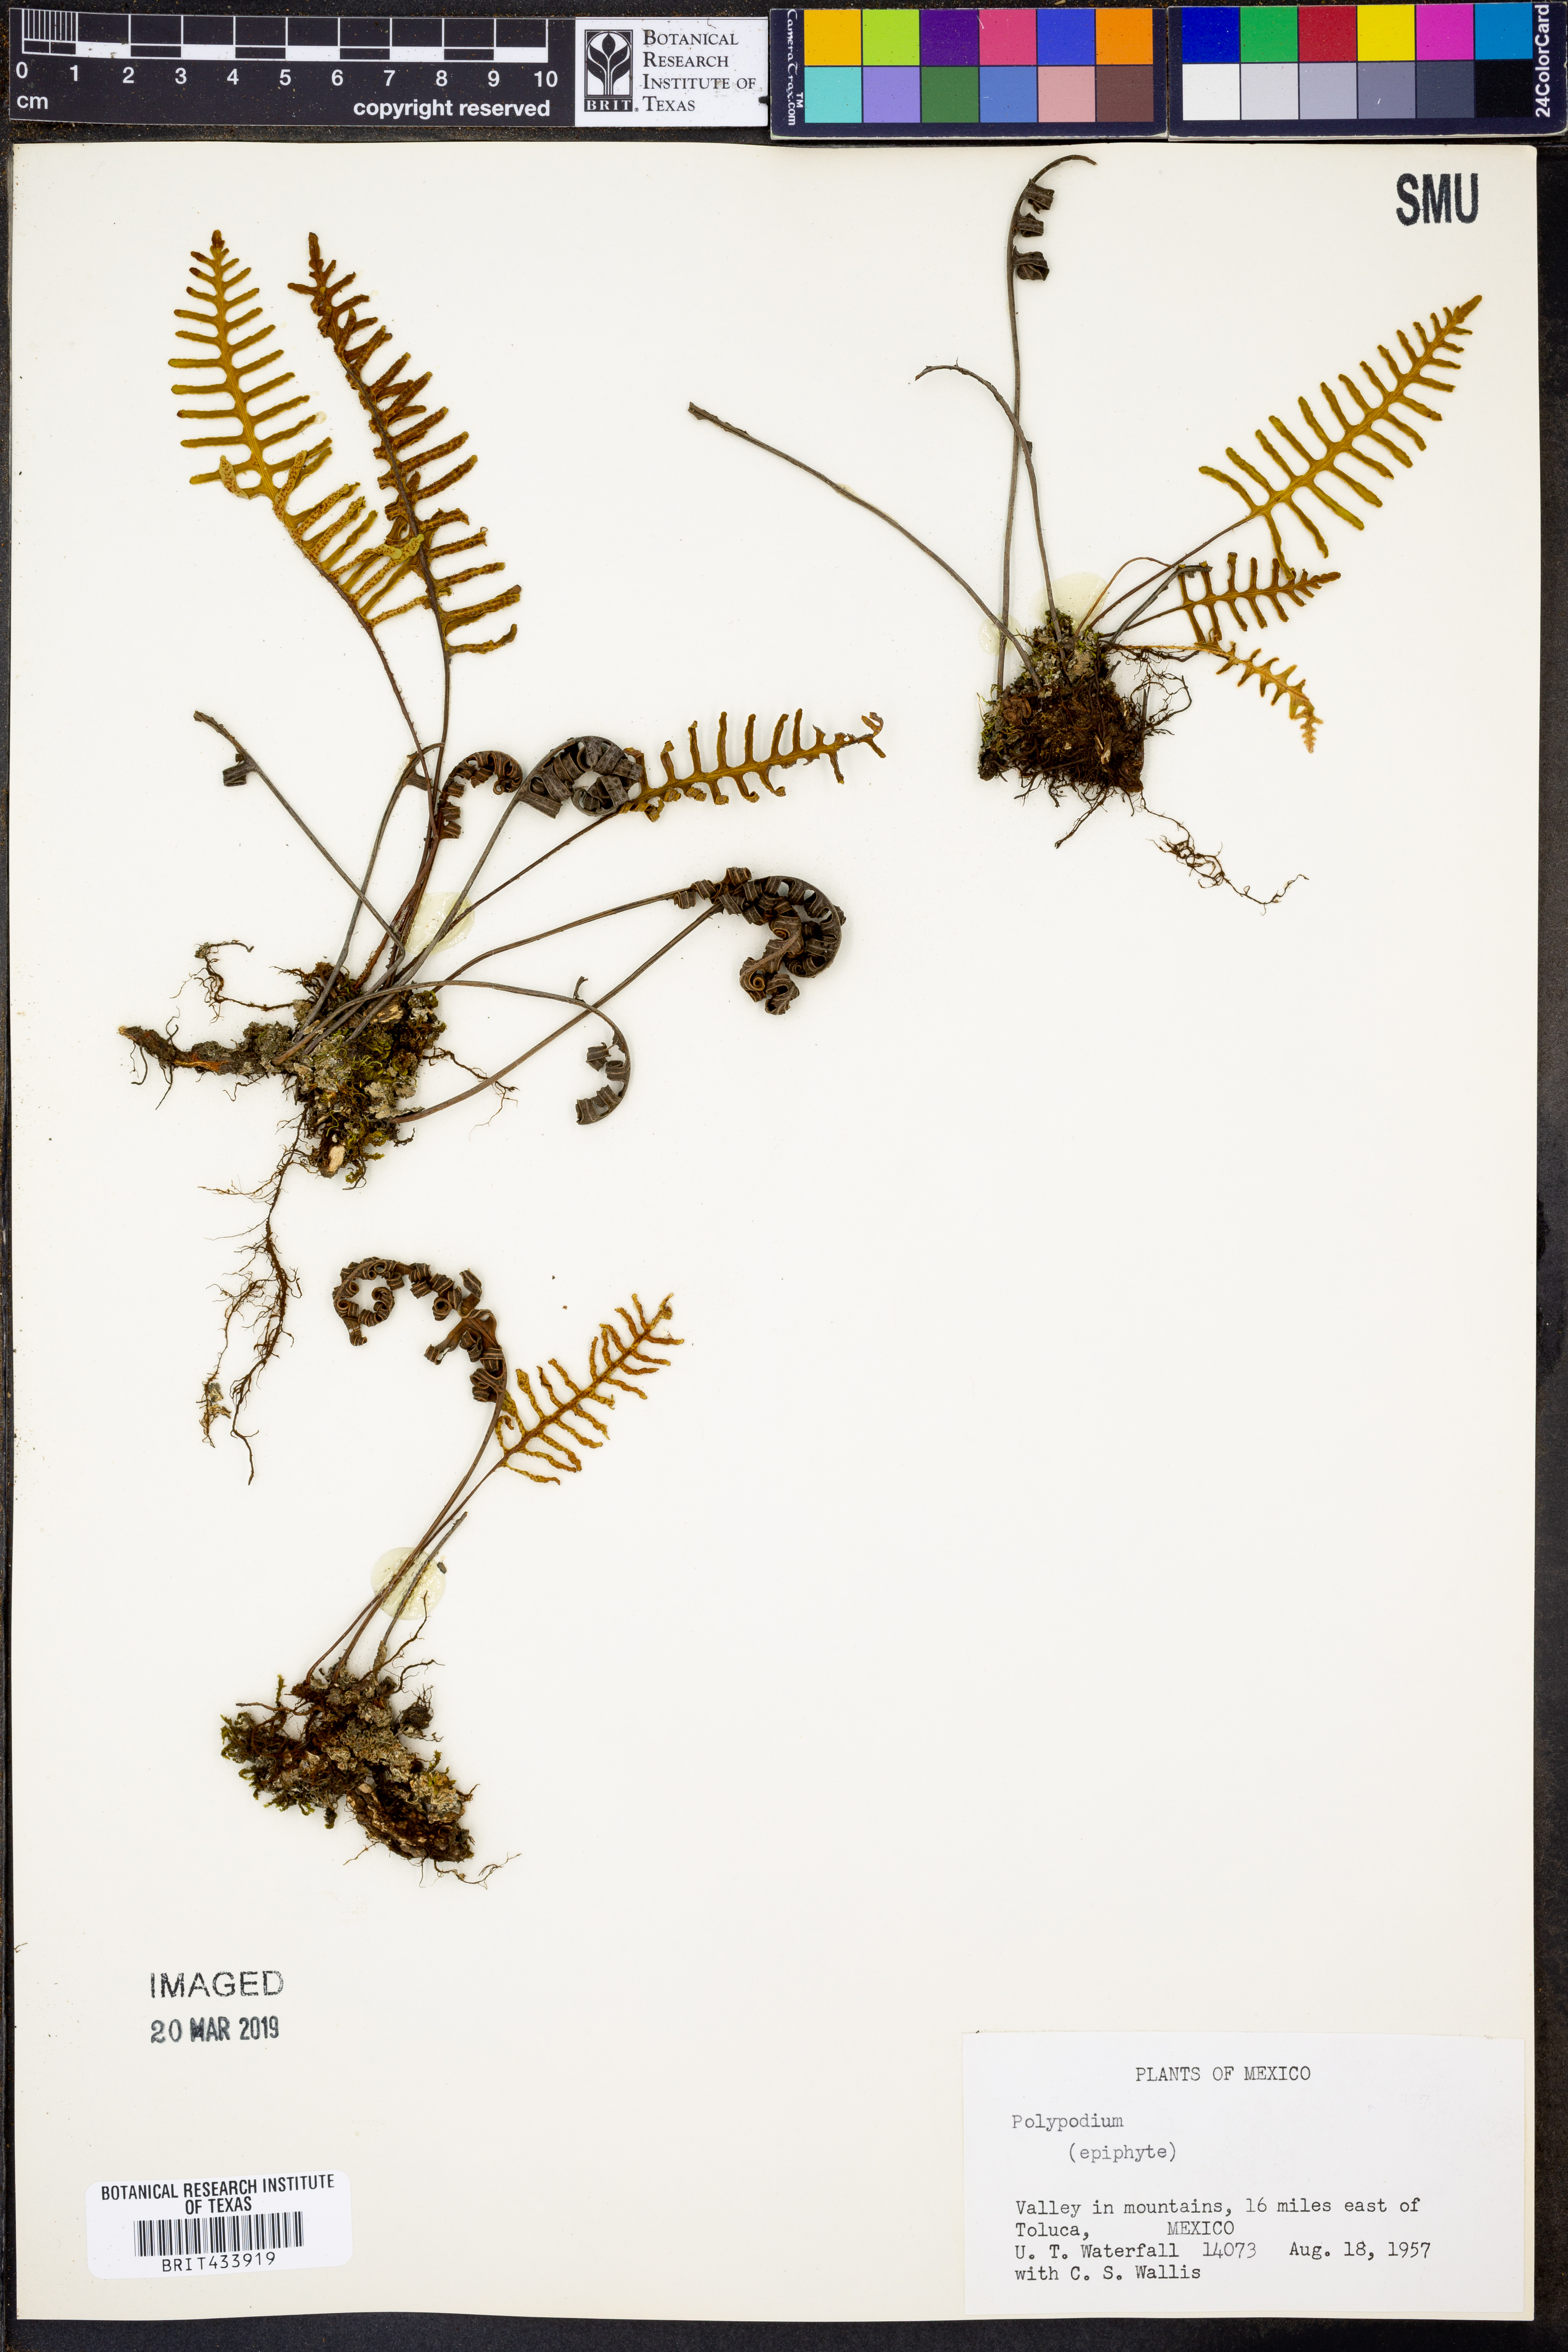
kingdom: Plantae
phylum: Tracheophyta
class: Polypodiopsida
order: Polypodiales
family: Polypodiaceae
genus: Polypodium
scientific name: Polypodium
